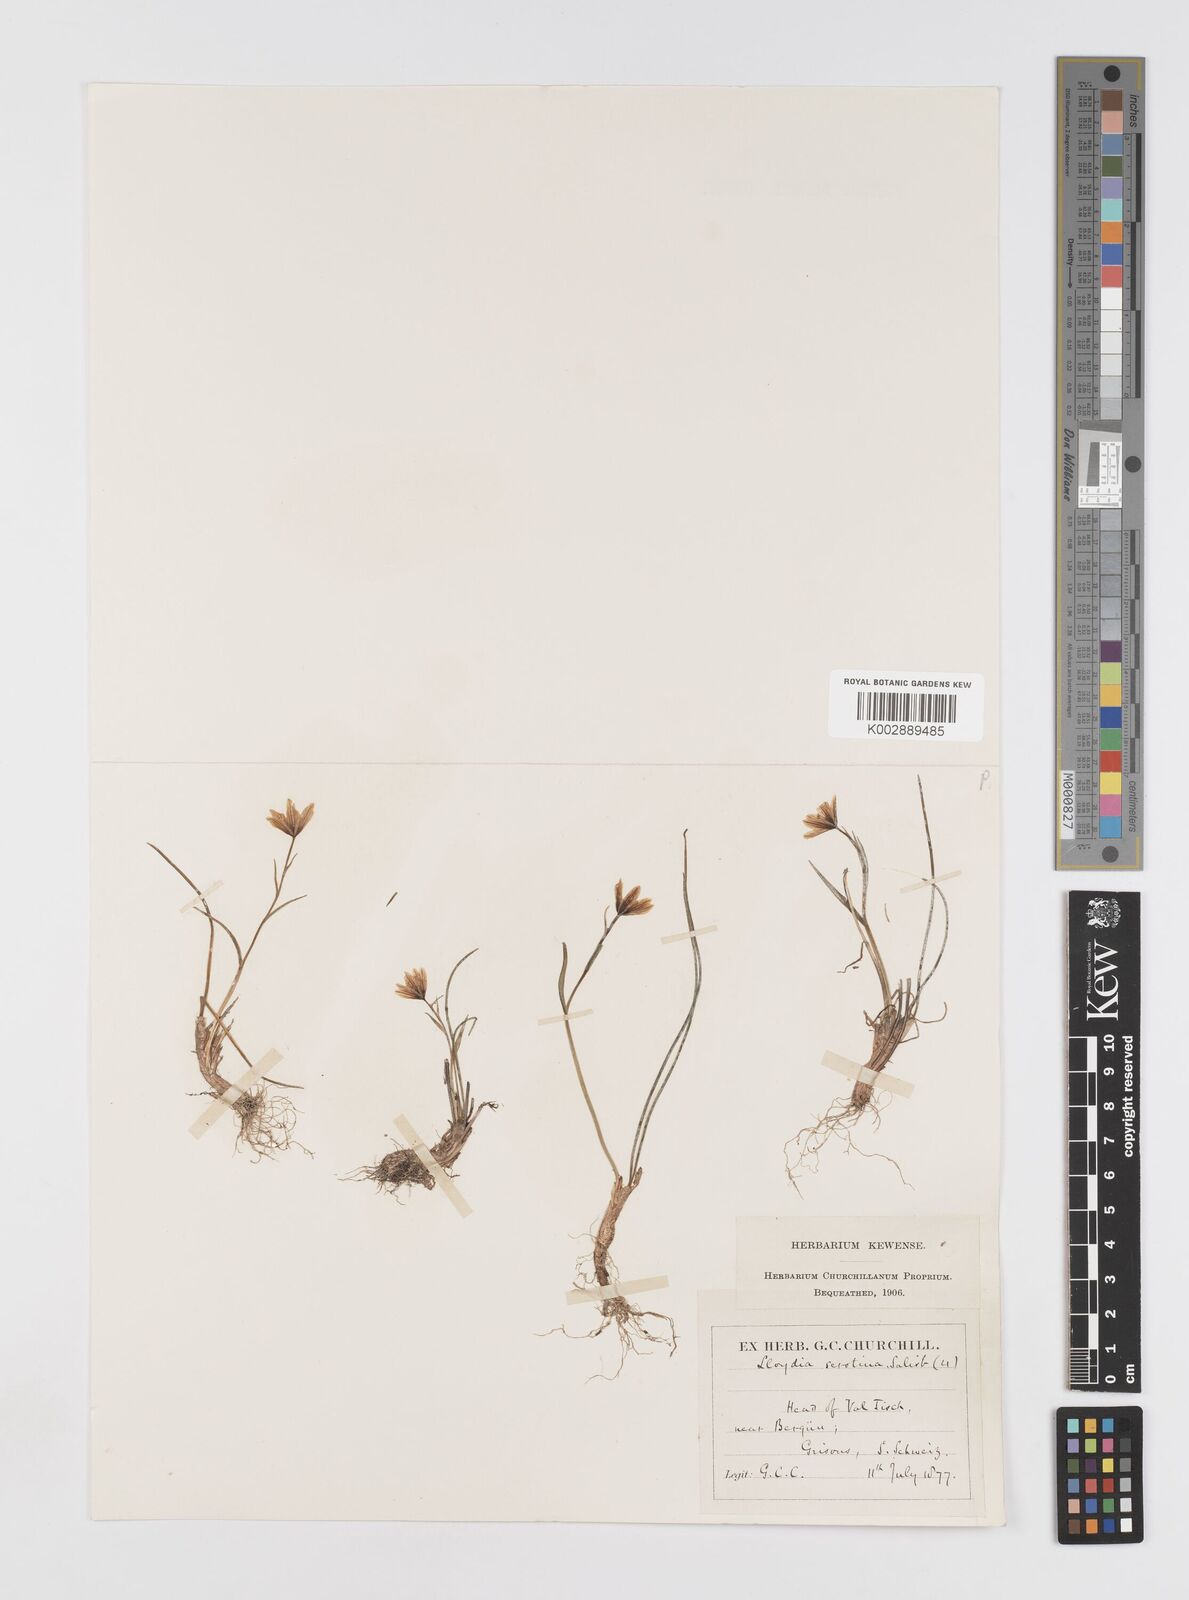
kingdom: Plantae
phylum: Tracheophyta
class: Liliopsida
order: Liliales
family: Liliaceae
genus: Gagea
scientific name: Gagea
